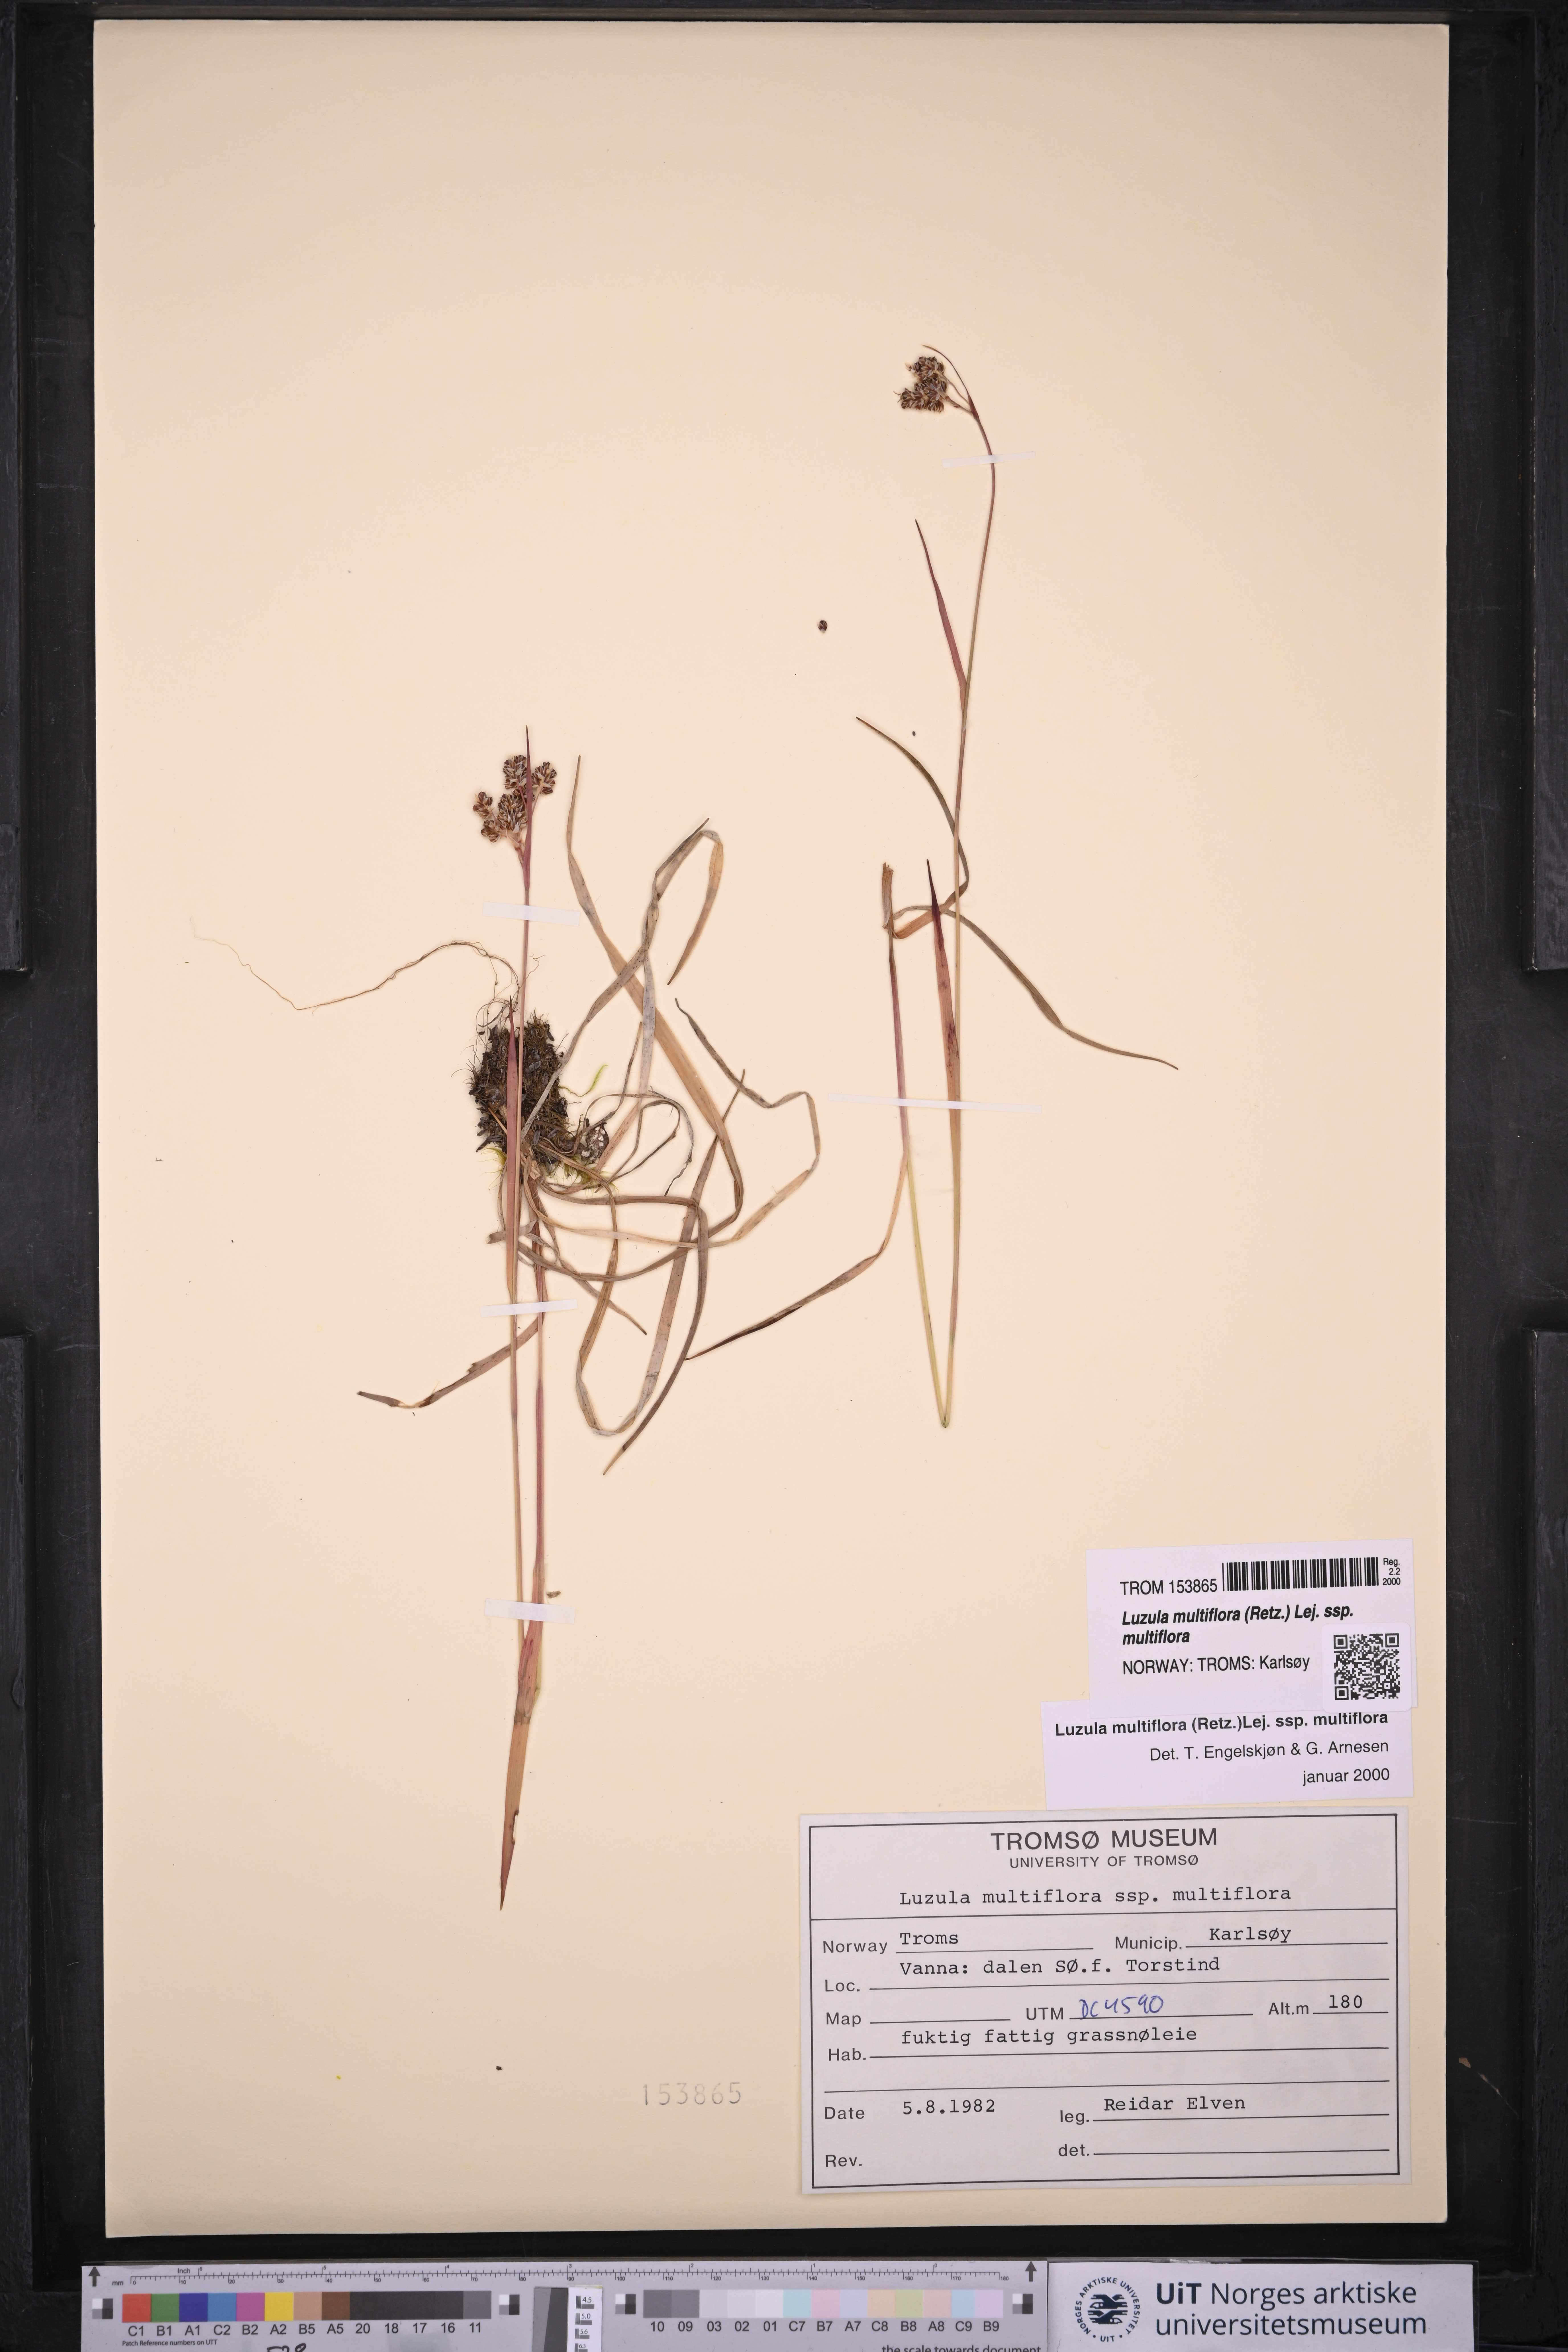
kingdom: Plantae
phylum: Tracheophyta
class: Liliopsida
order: Poales
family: Juncaceae
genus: Luzula
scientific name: Luzula multiflora
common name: Heath wood-rush
